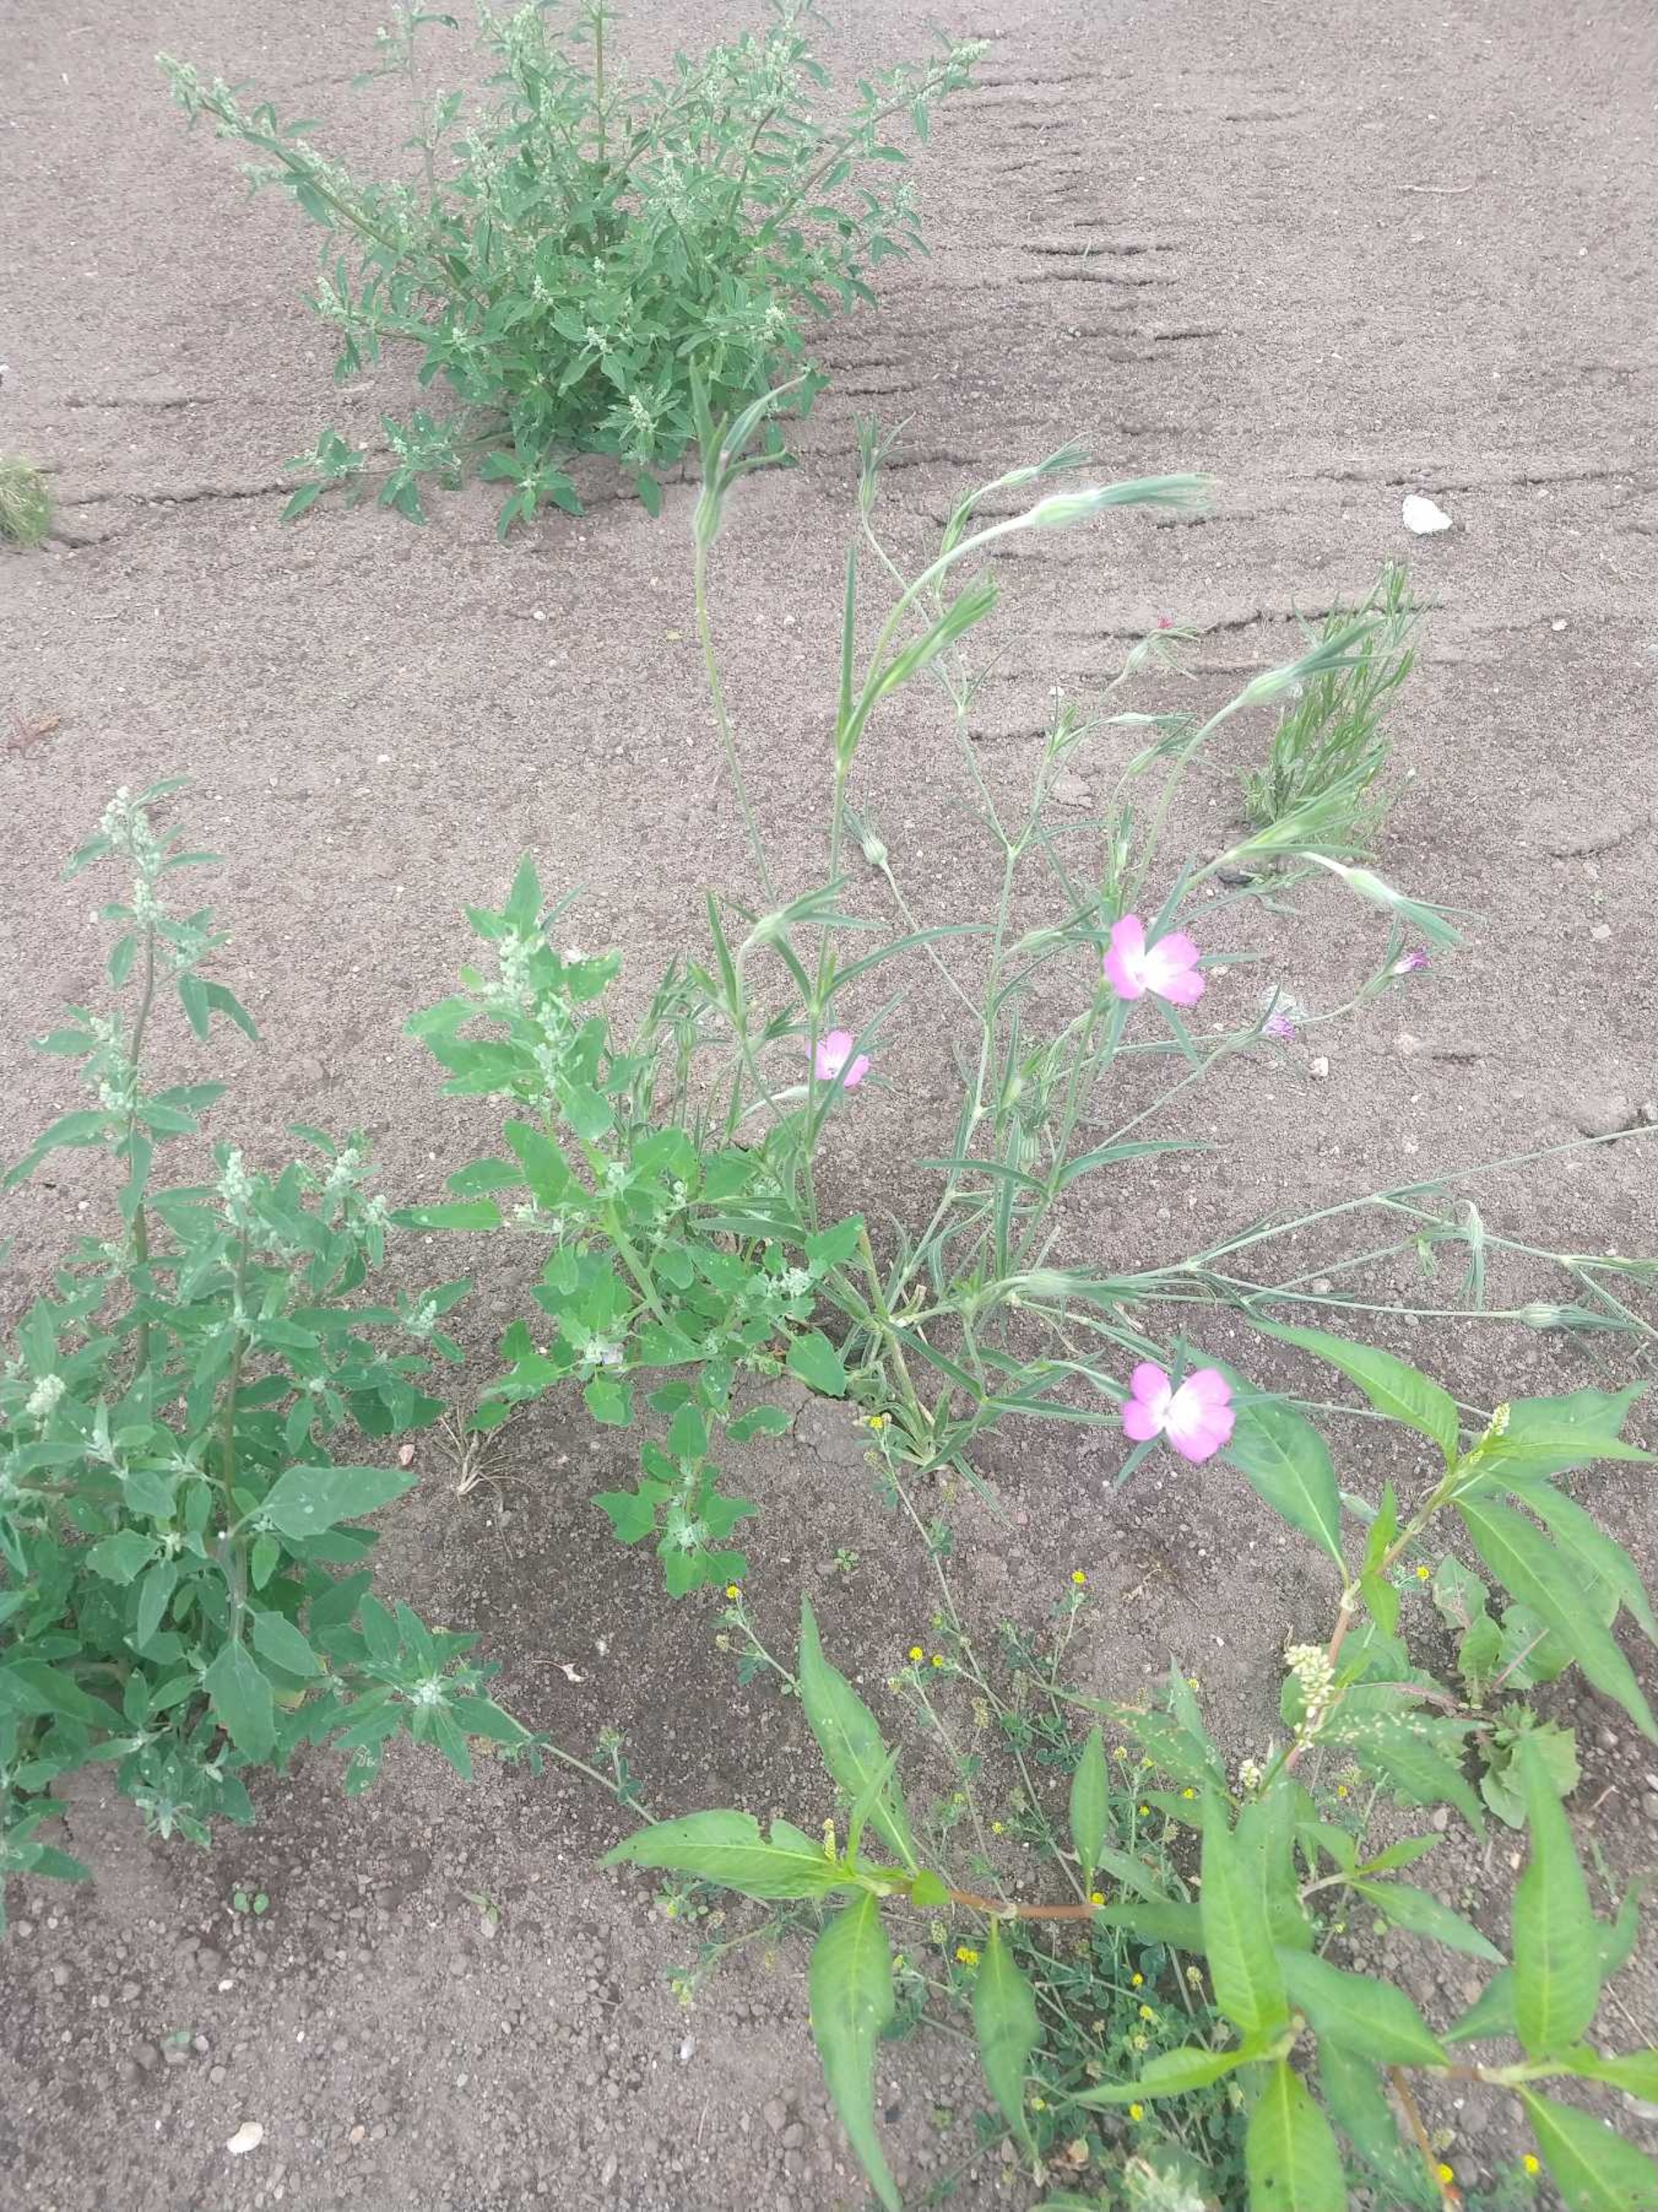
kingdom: Plantae
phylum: Tracheophyta
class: Magnoliopsida
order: Caryophyllales
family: Caryophyllaceae
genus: Agrostemma
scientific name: Agrostemma githago
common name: Klinte
